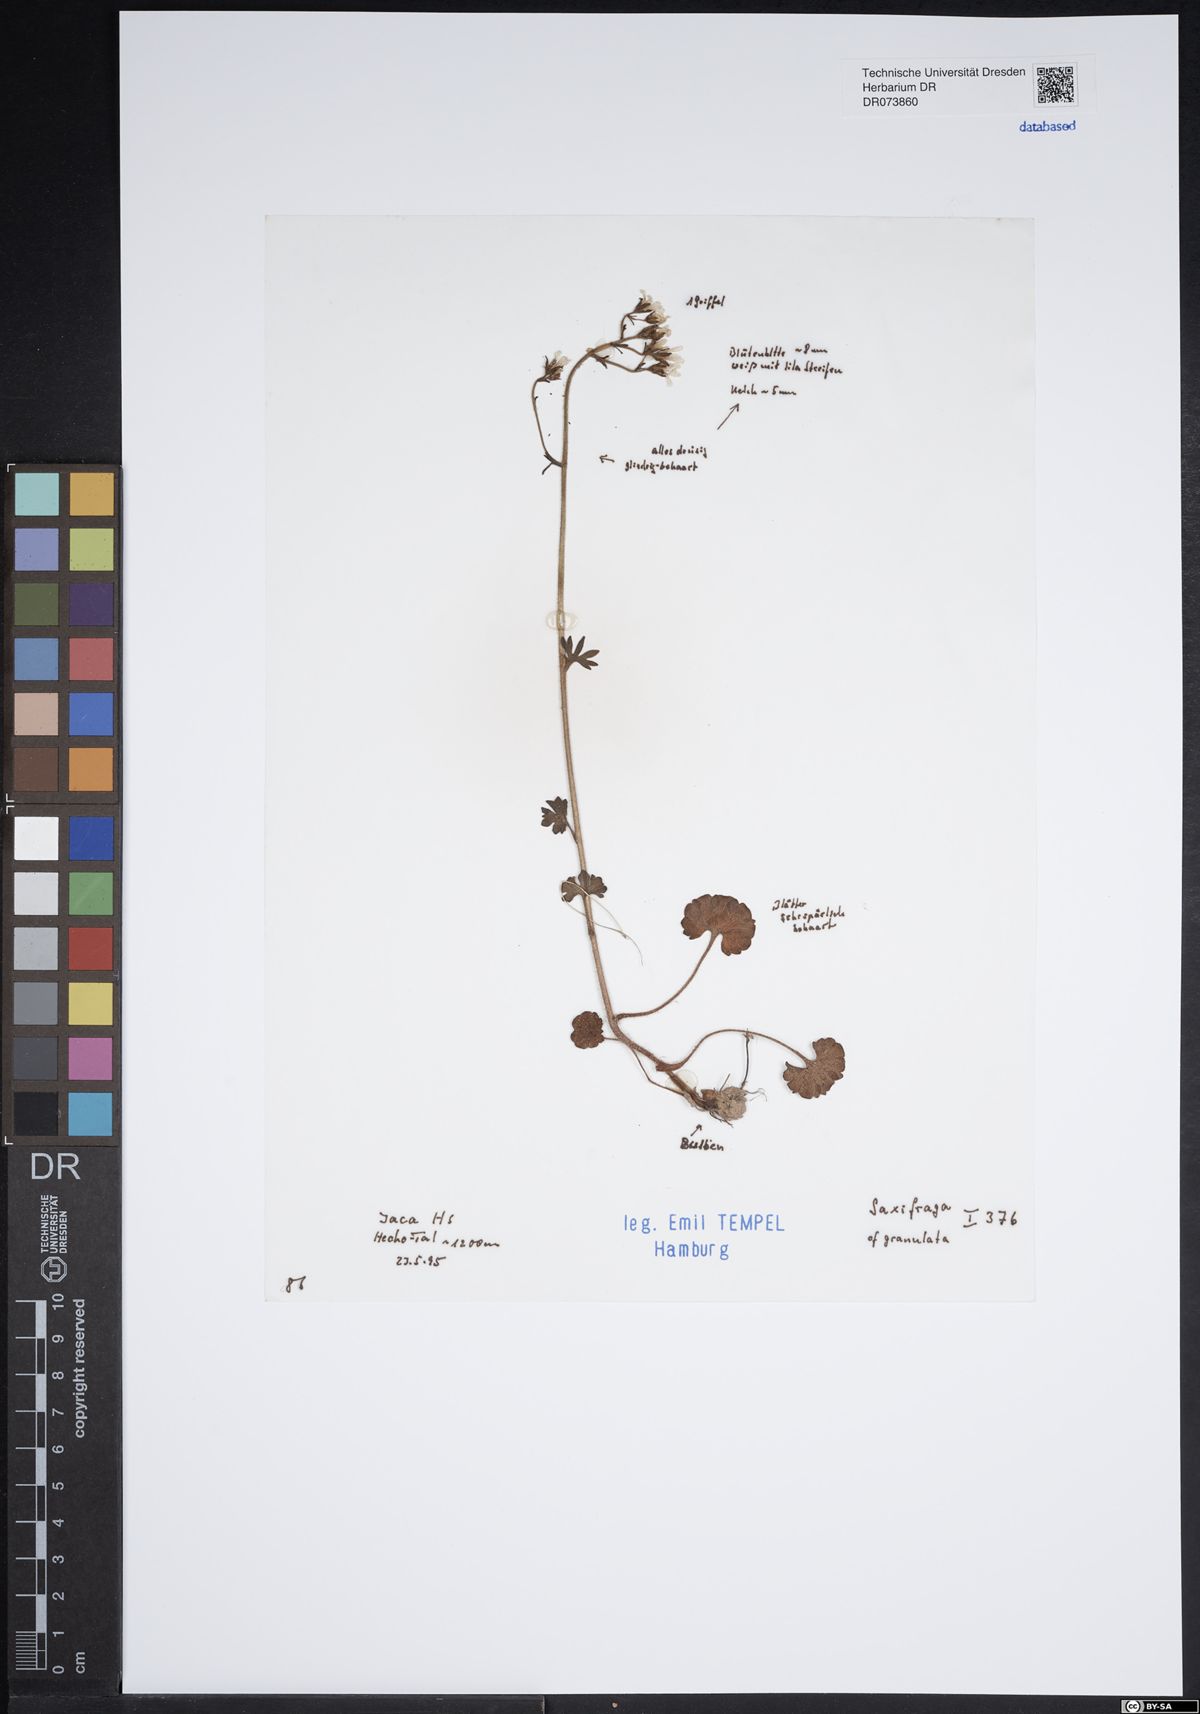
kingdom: Plantae
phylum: Tracheophyta
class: Magnoliopsida
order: Saxifragales
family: Saxifragaceae
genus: Saxifraga
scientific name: Saxifraga granulata
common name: Meadow saxifrage
